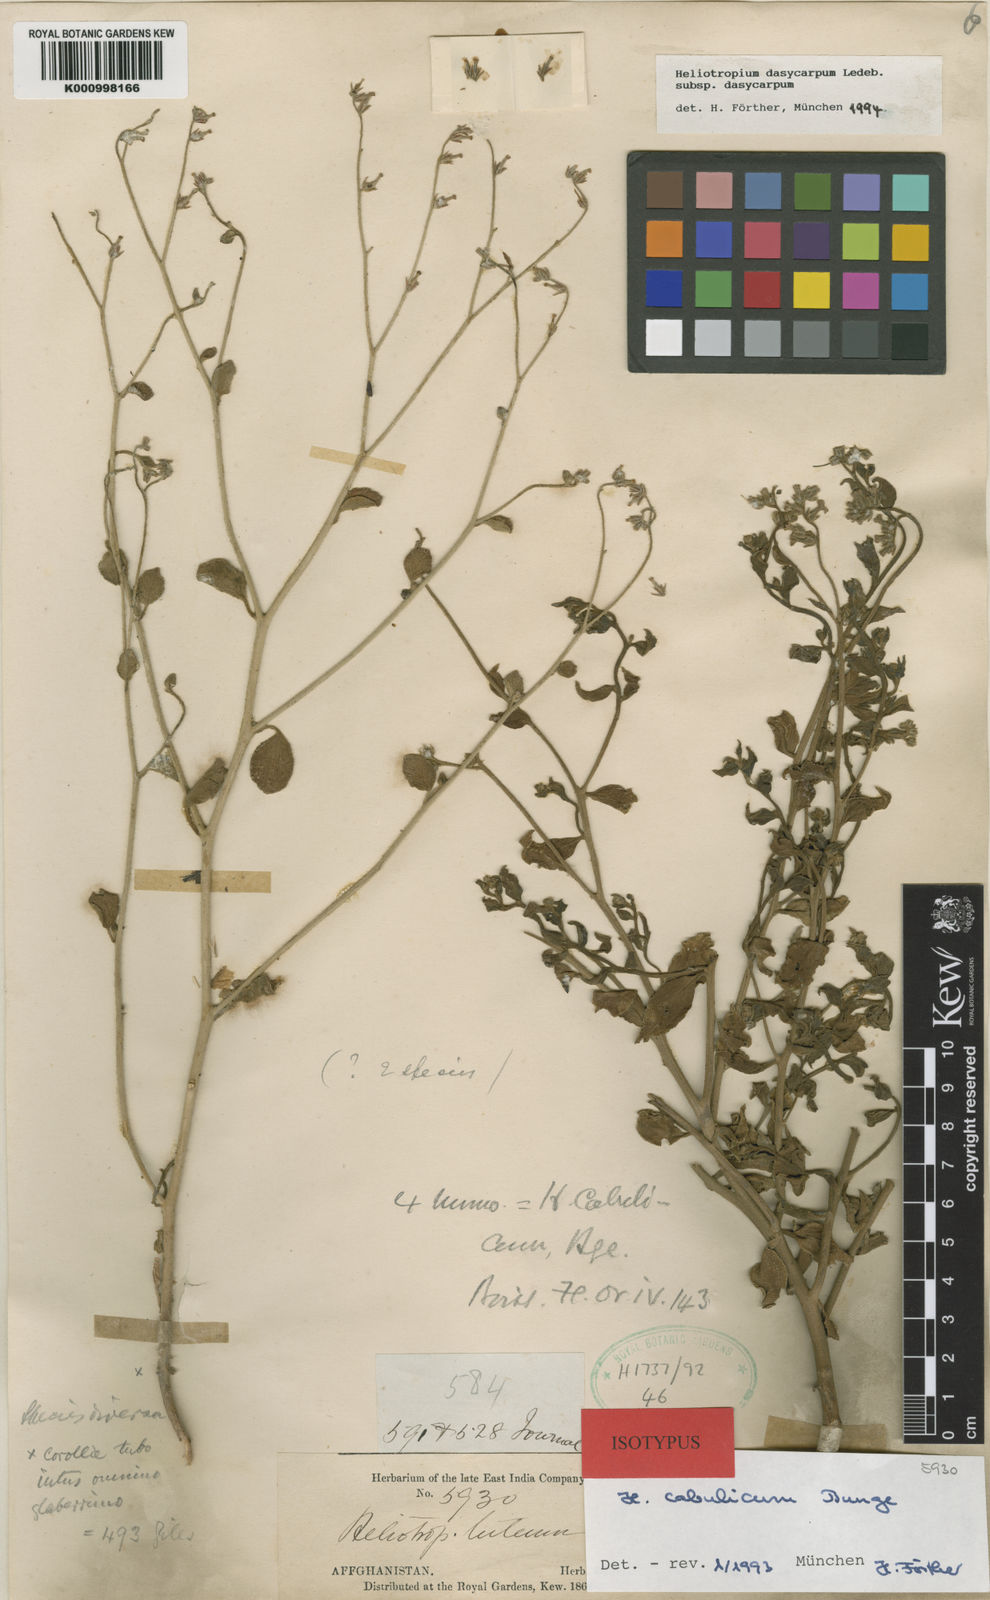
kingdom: Plantae
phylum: Tracheophyta
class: Magnoliopsida
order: Boraginales
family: Heliotropiaceae
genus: Heliotropium
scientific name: Heliotropium
